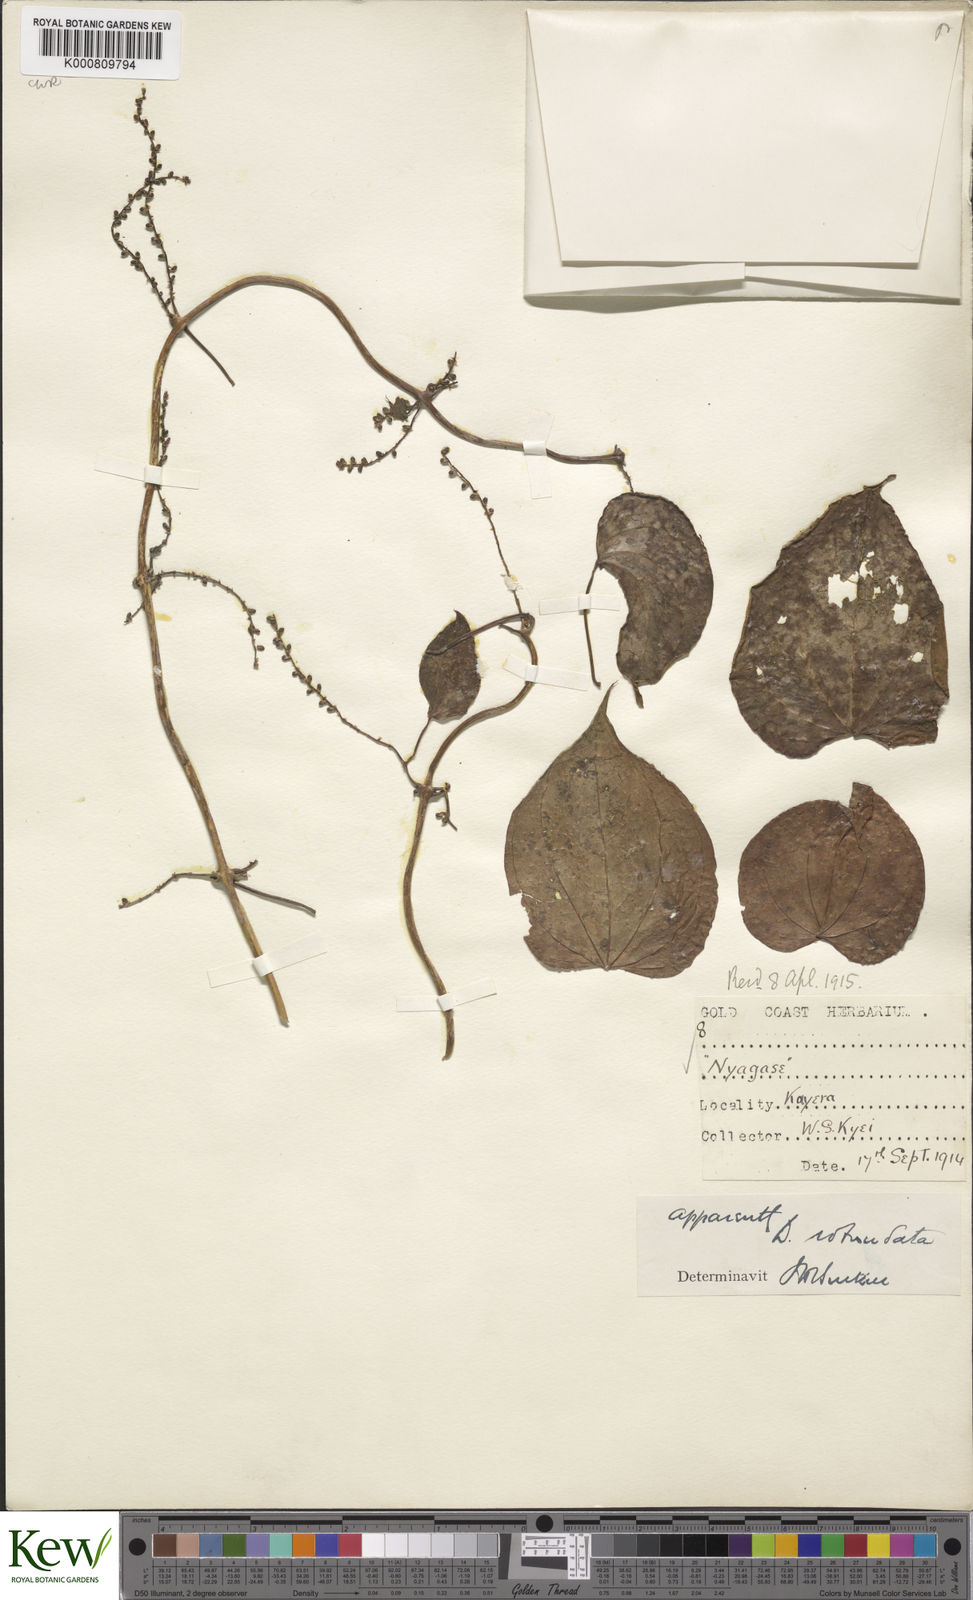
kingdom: Plantae
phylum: Tracheophyta
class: Liliopsida
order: Dioscoreales
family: Dioscoreaceae
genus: Dioscorea
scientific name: Dioscorea cayenensis
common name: Attoto yam
